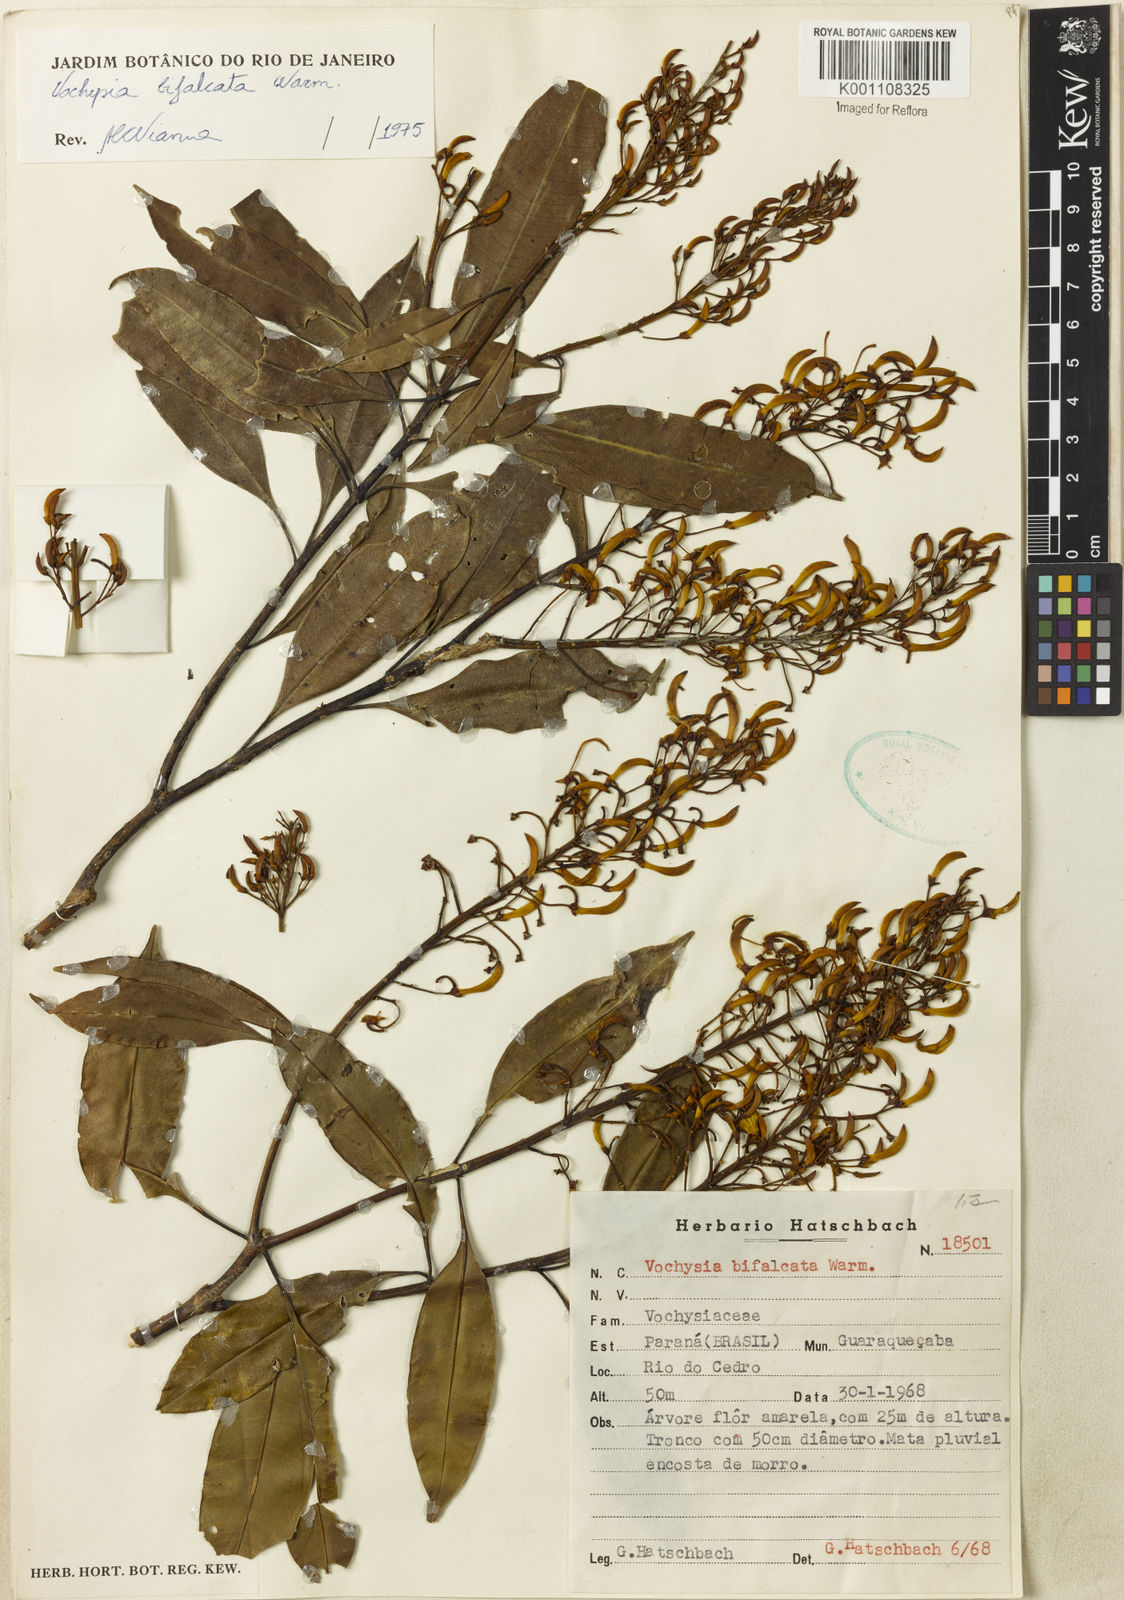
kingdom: Plantae
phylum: Tracheophyta
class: Magnoliopsida
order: Myrtales
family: Vochysiaceae
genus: Vochysia
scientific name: Vochysia bifalcata
